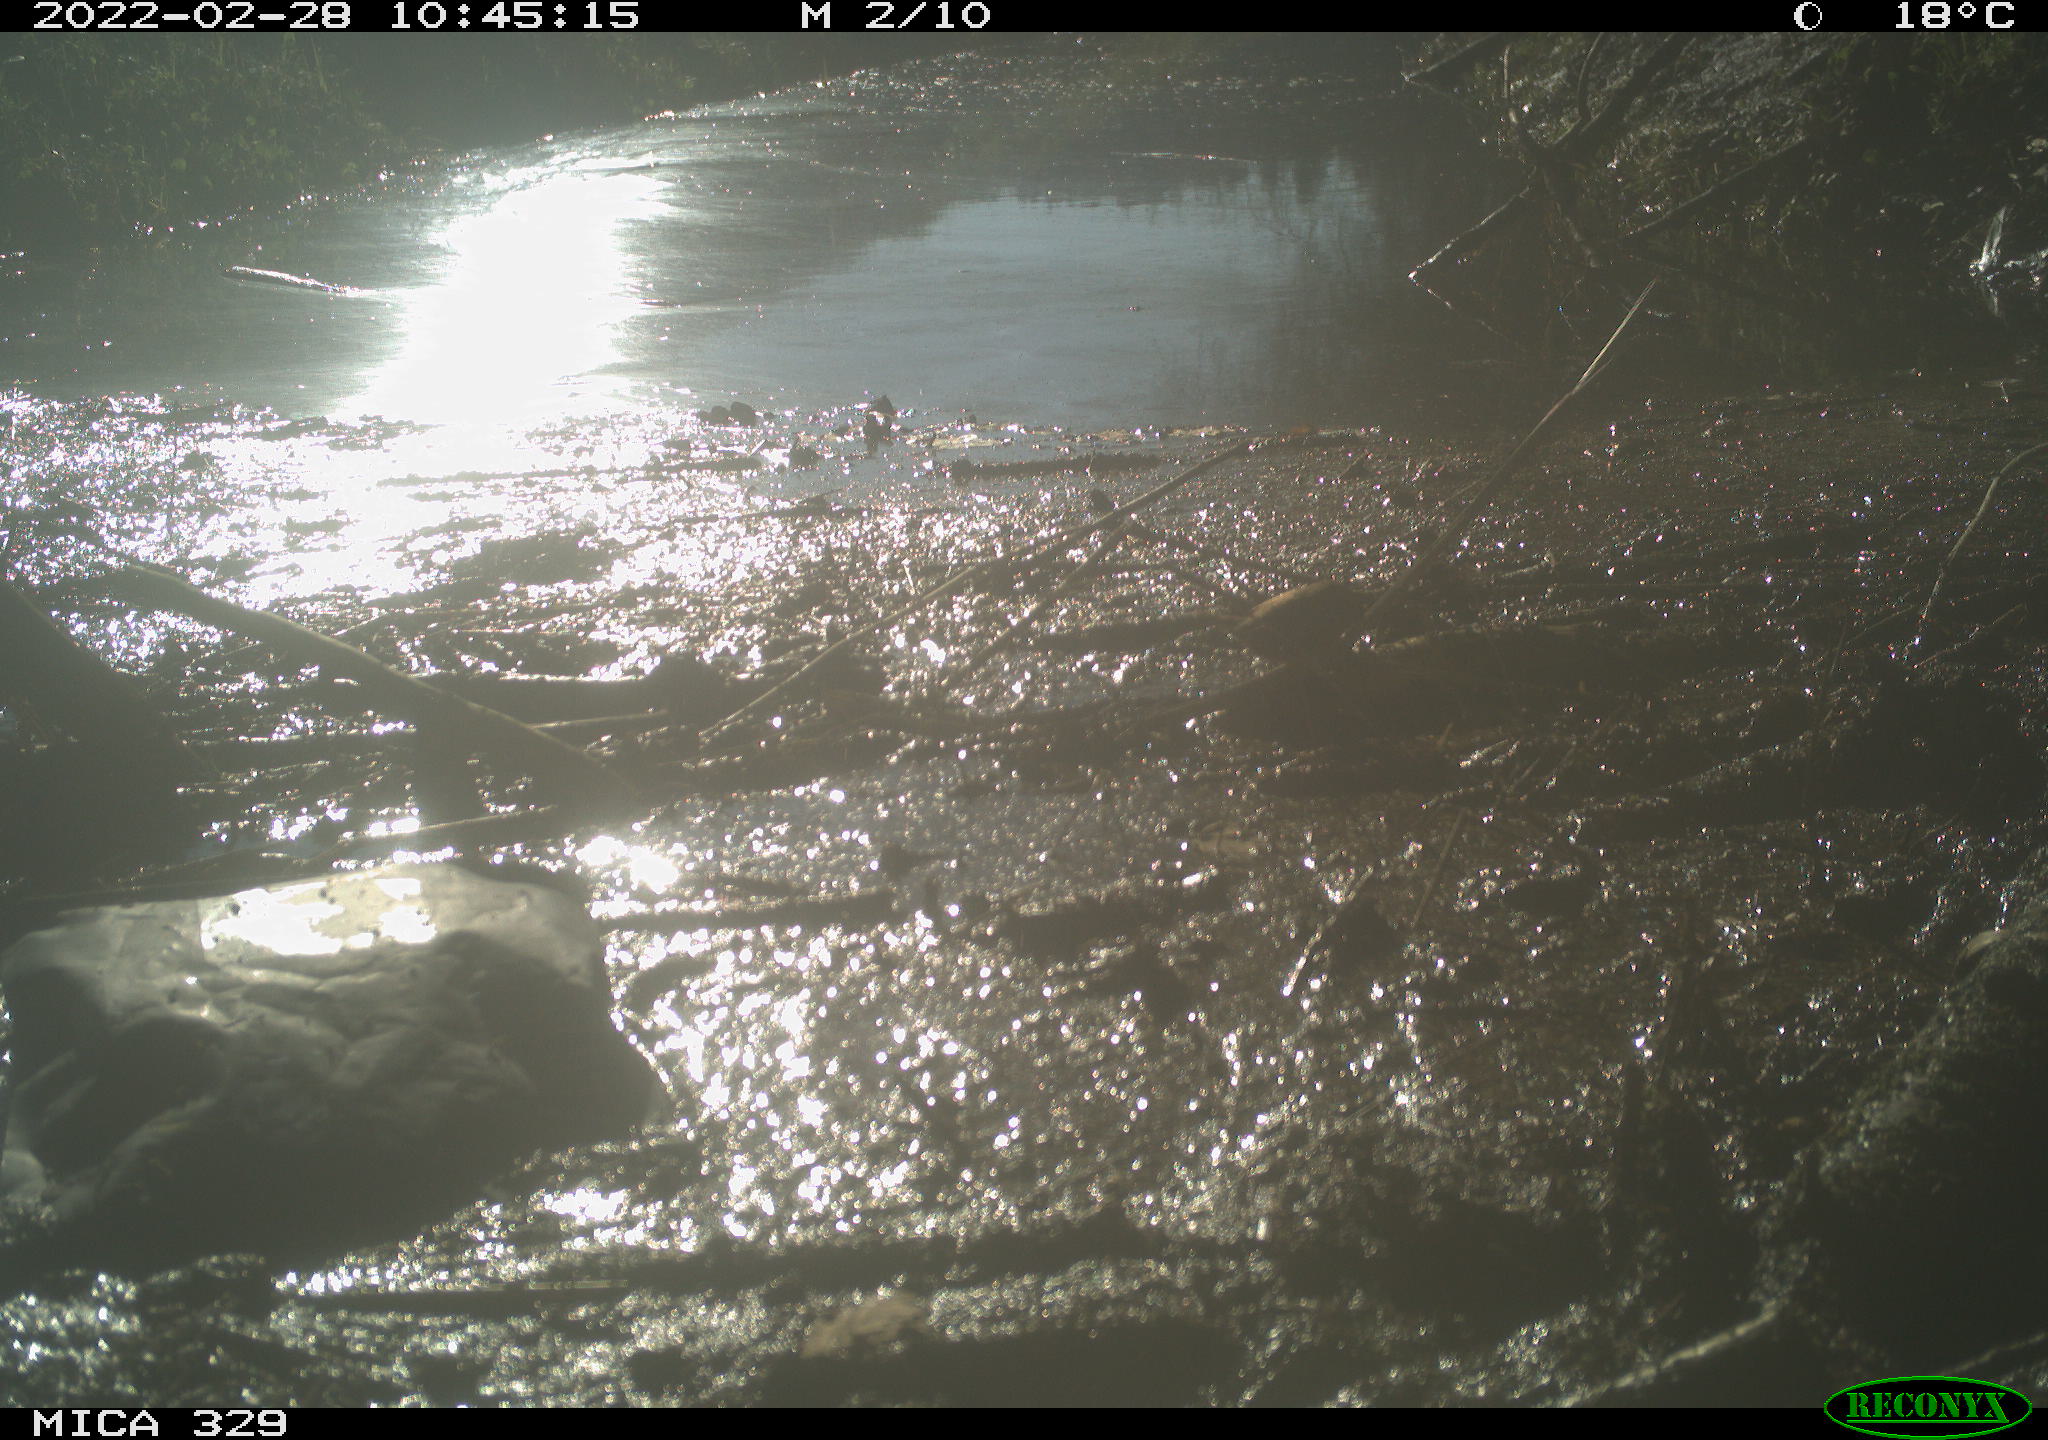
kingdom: Animalia
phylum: Chordata
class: Aves
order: Passeriformes
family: Troglodytidae
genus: Troglodytes
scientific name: Troglodytes troglodytes
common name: Eurasian wren
